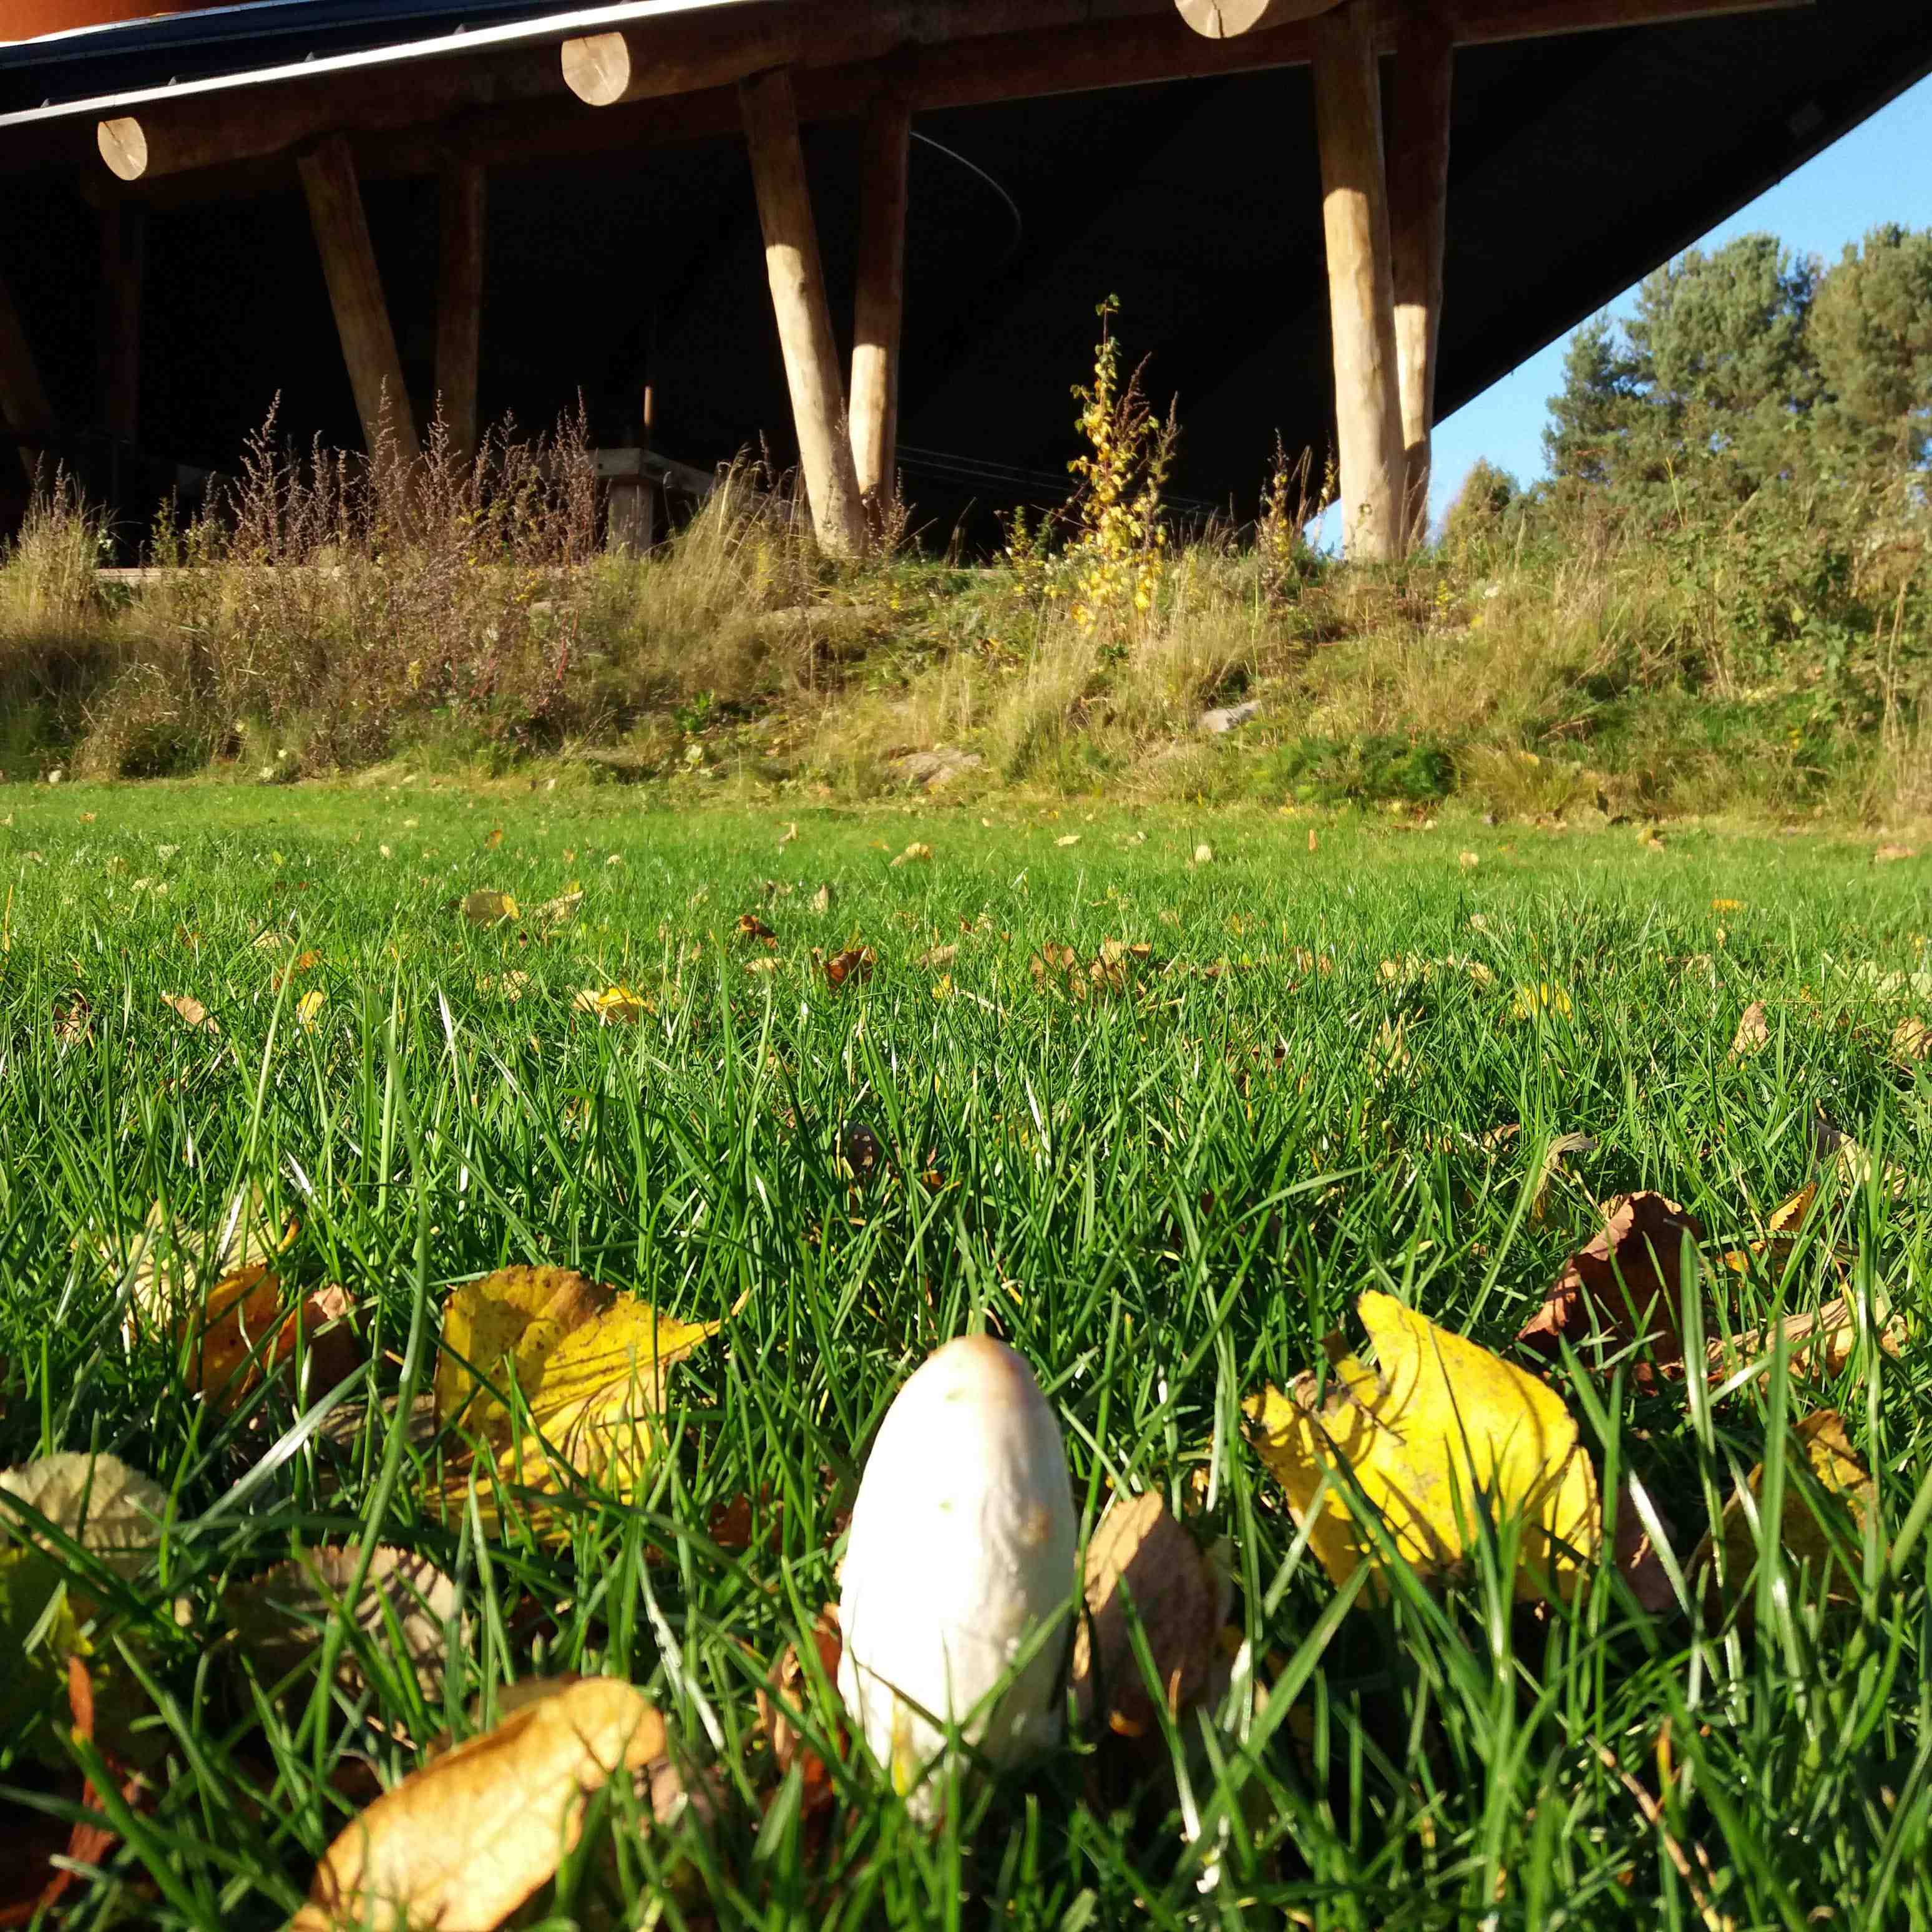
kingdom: Fungi
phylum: Basidiomycota
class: Agaricomycetes
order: Agaricales
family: Agaricaceae
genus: Coprinus
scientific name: Coprinus comatus
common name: stor parykhat
